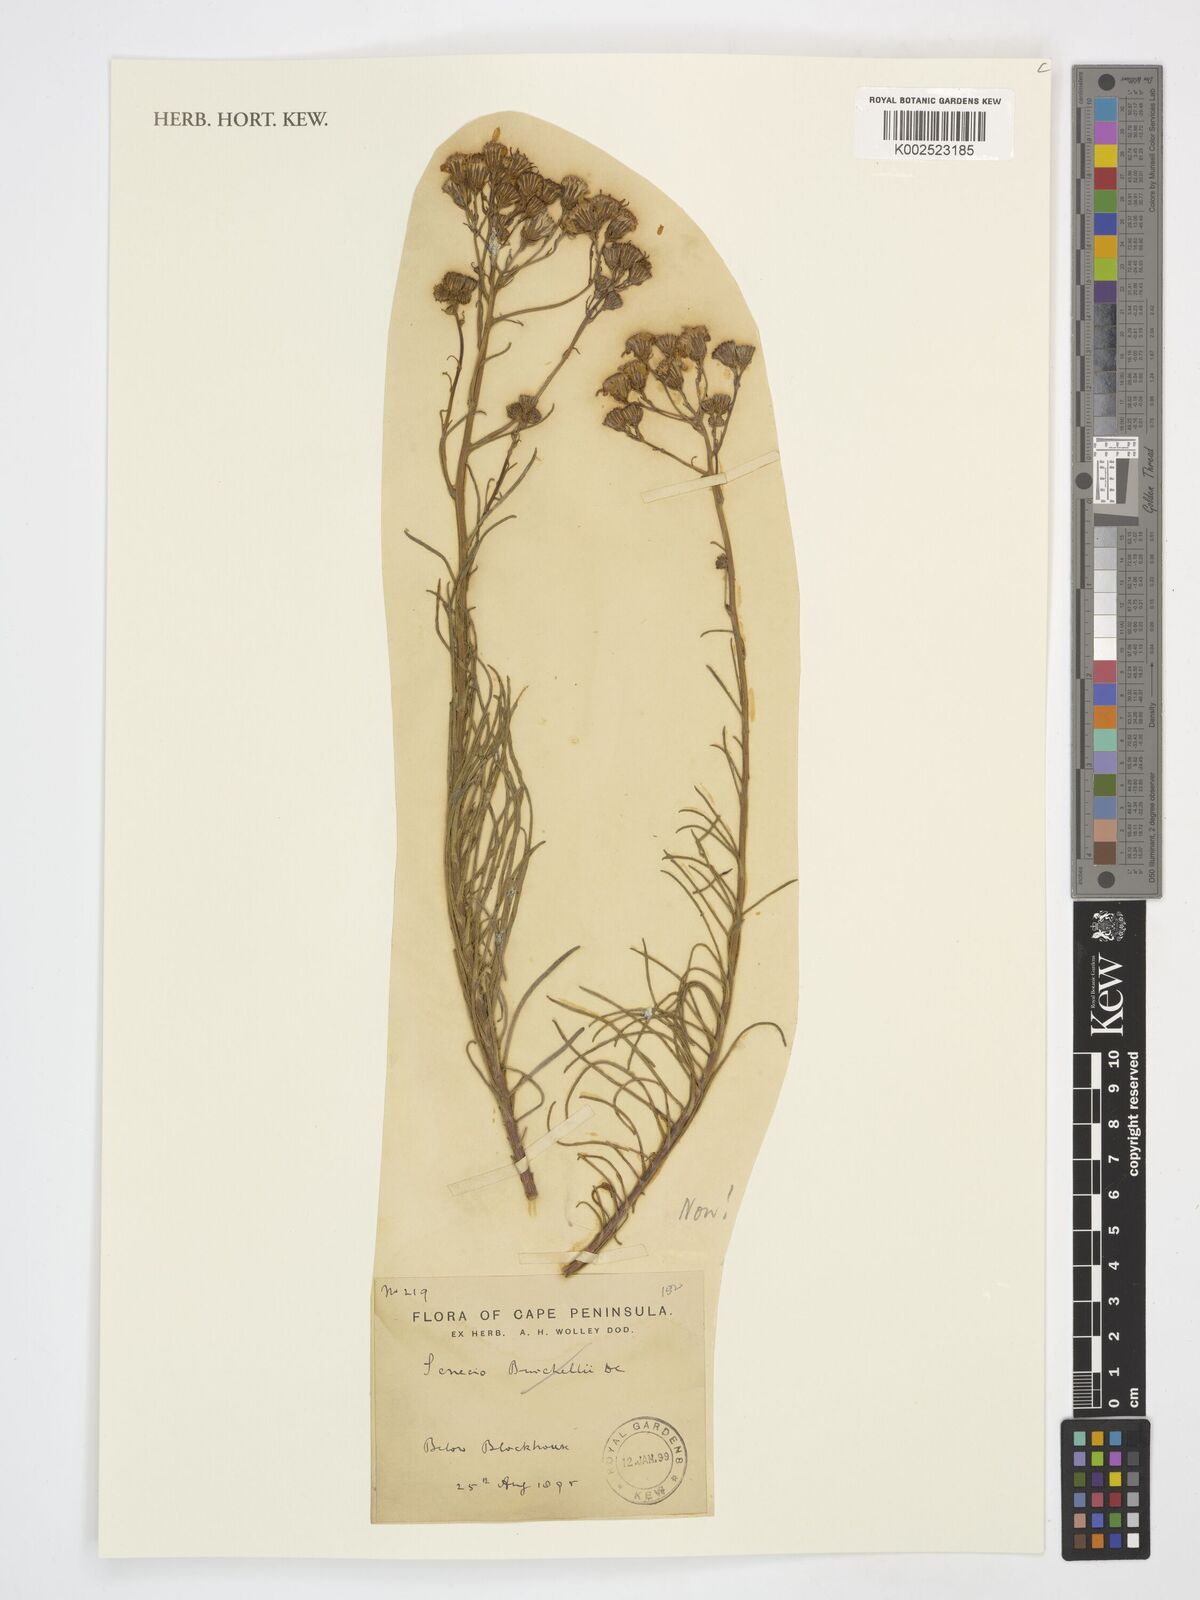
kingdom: Plantae
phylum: Tracheophyta
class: Magnoliopsida
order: Asterales
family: Asteraceae
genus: Senecio
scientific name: Senecio
